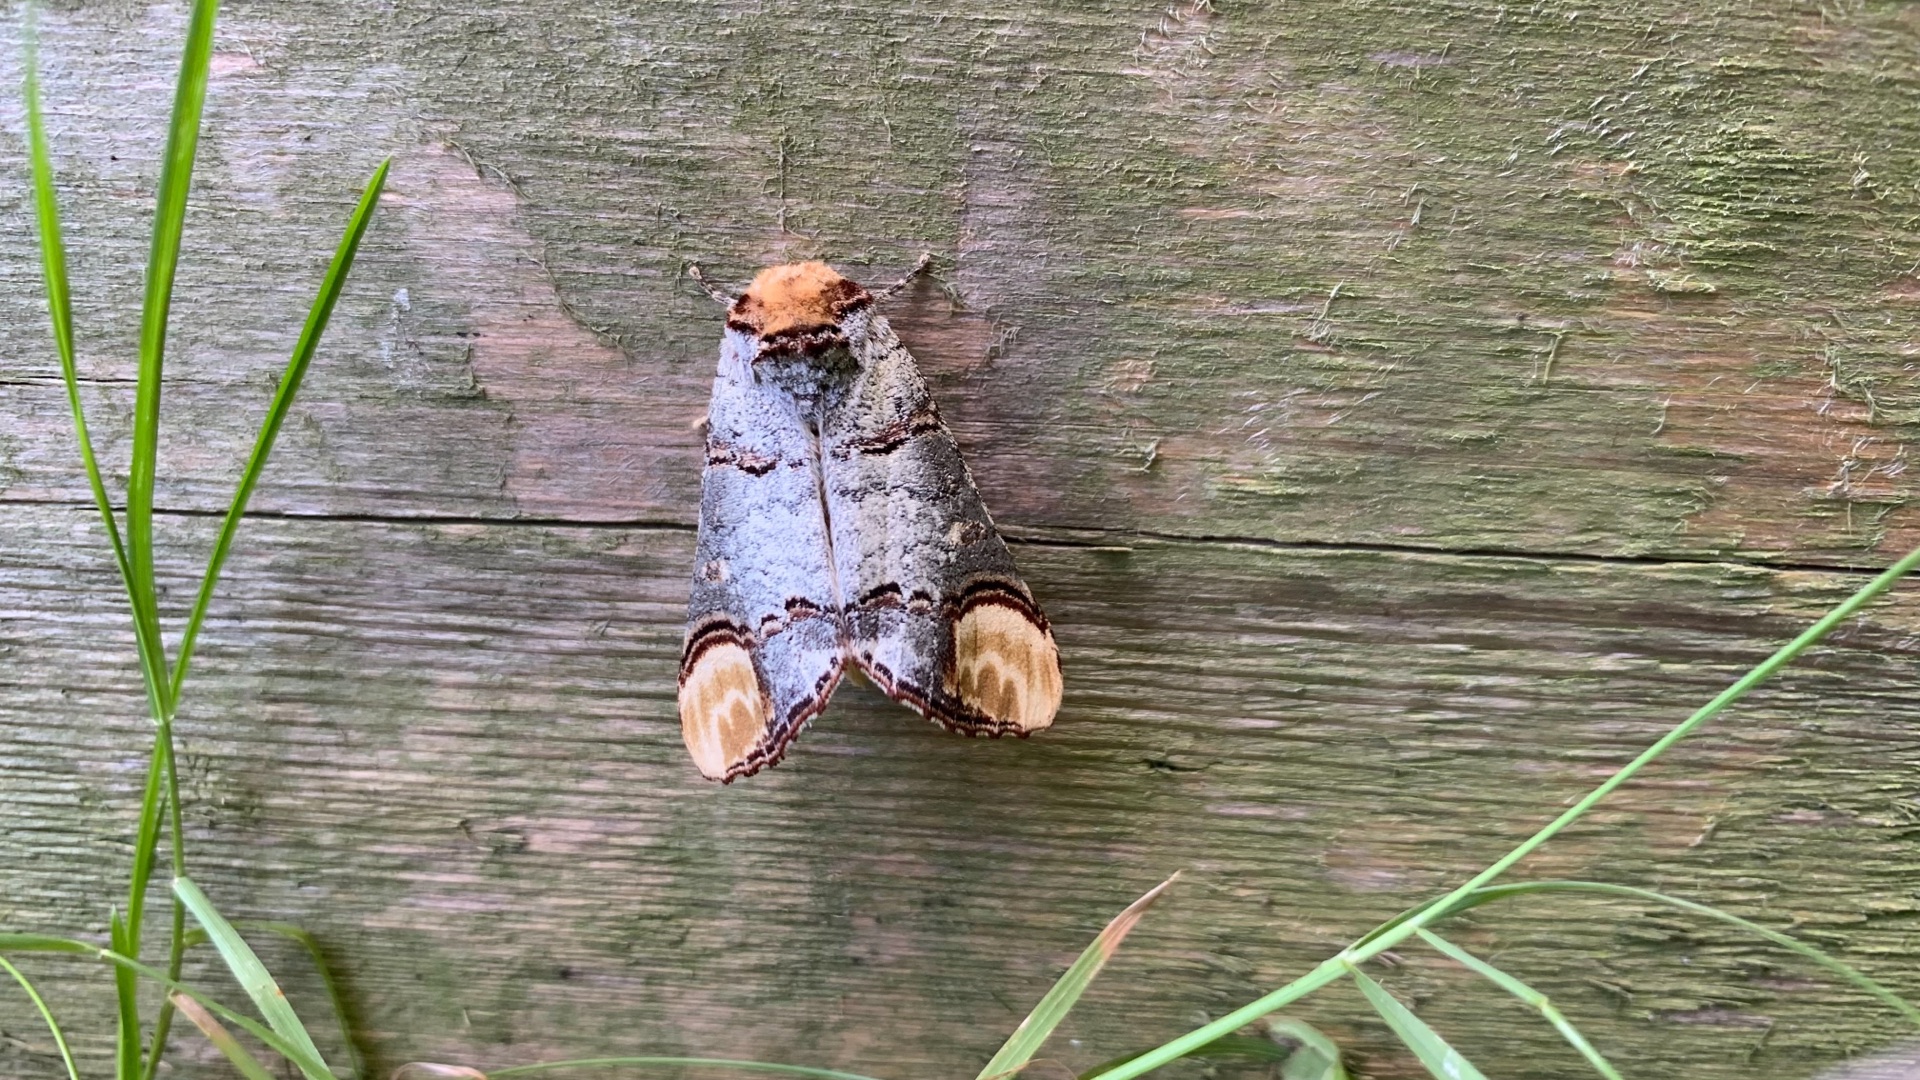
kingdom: Animalia
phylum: Arthropoda
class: Insecta
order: Lepidoptera
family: Notodontidae
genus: Phalera
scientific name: Phalera bucephala
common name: Måneplet
